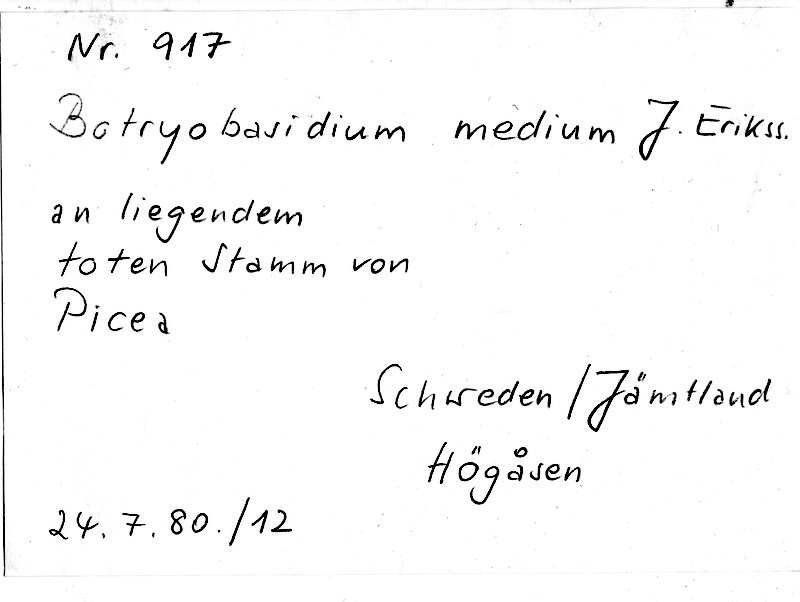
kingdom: Plantae
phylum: Tracheophyta
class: Pinopsida
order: Pinales
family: Pinaceae
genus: Picea
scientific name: Picea
